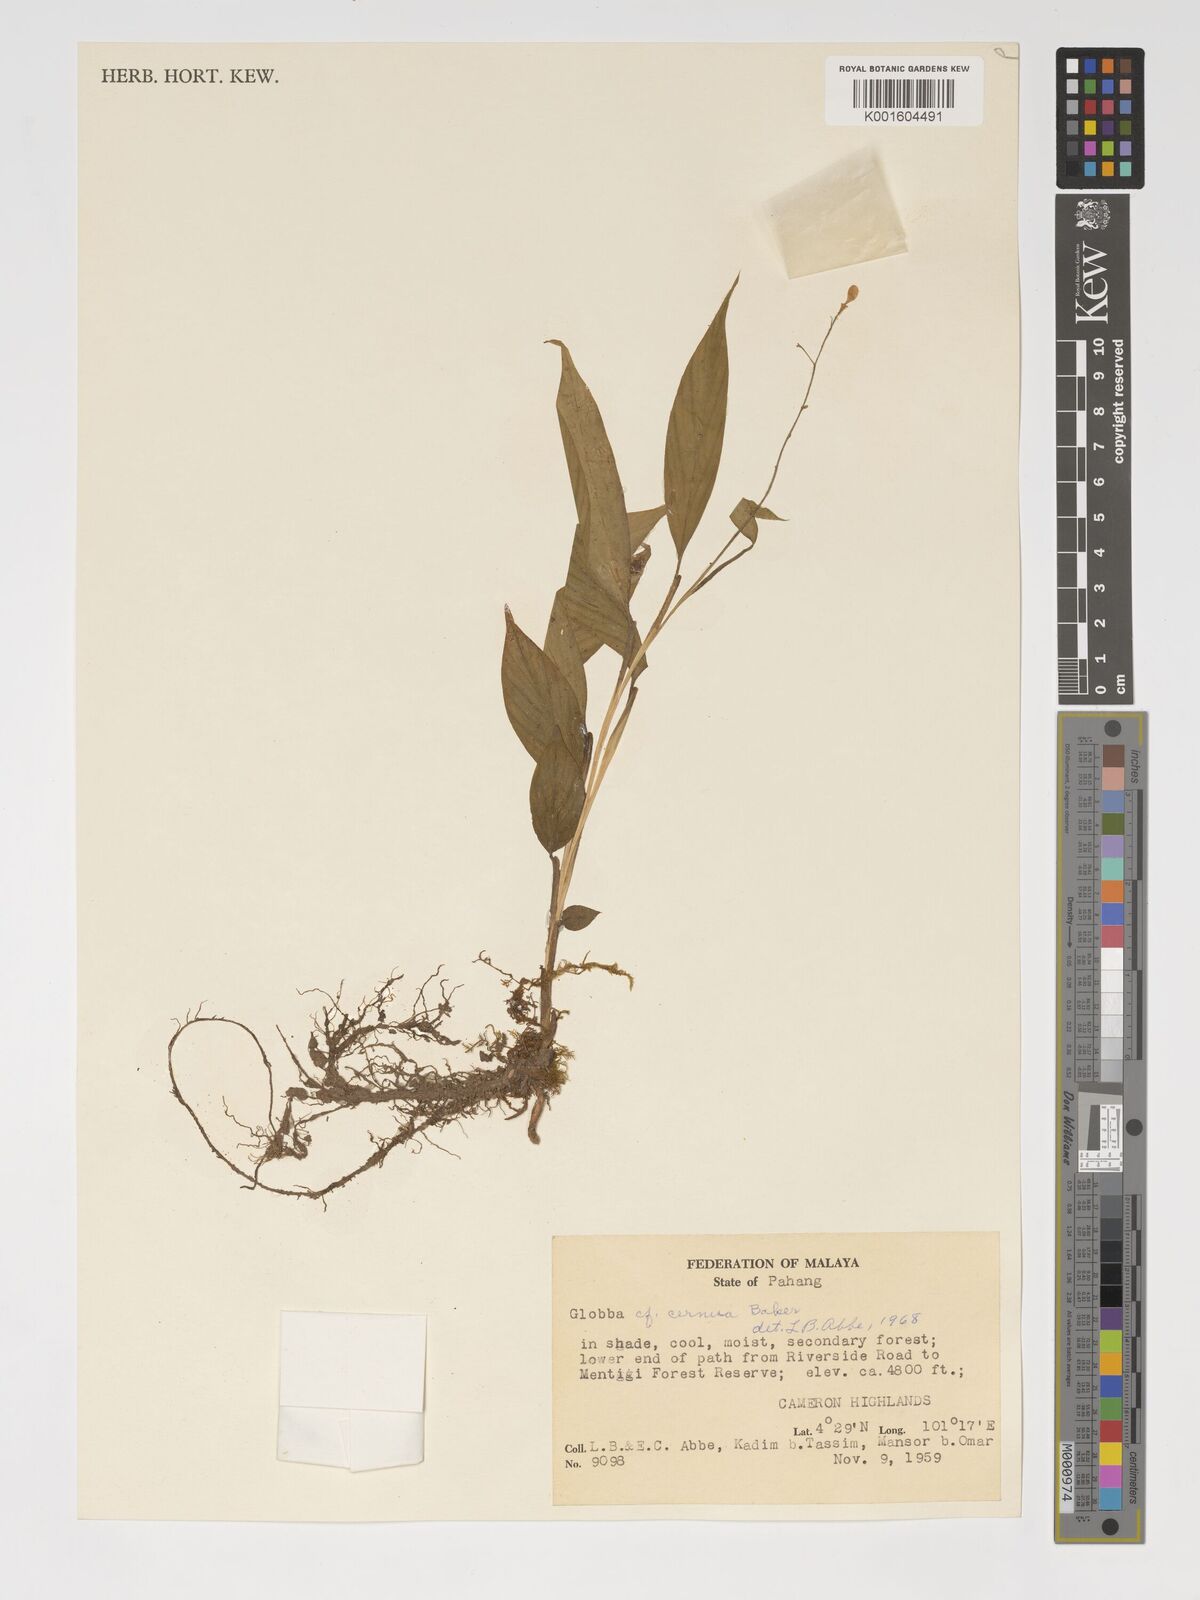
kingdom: Plantae
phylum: Tracheophyta
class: Liliopsida
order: Zingiberales
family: Zingiberaceae
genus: Globba
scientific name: Globba cernua
